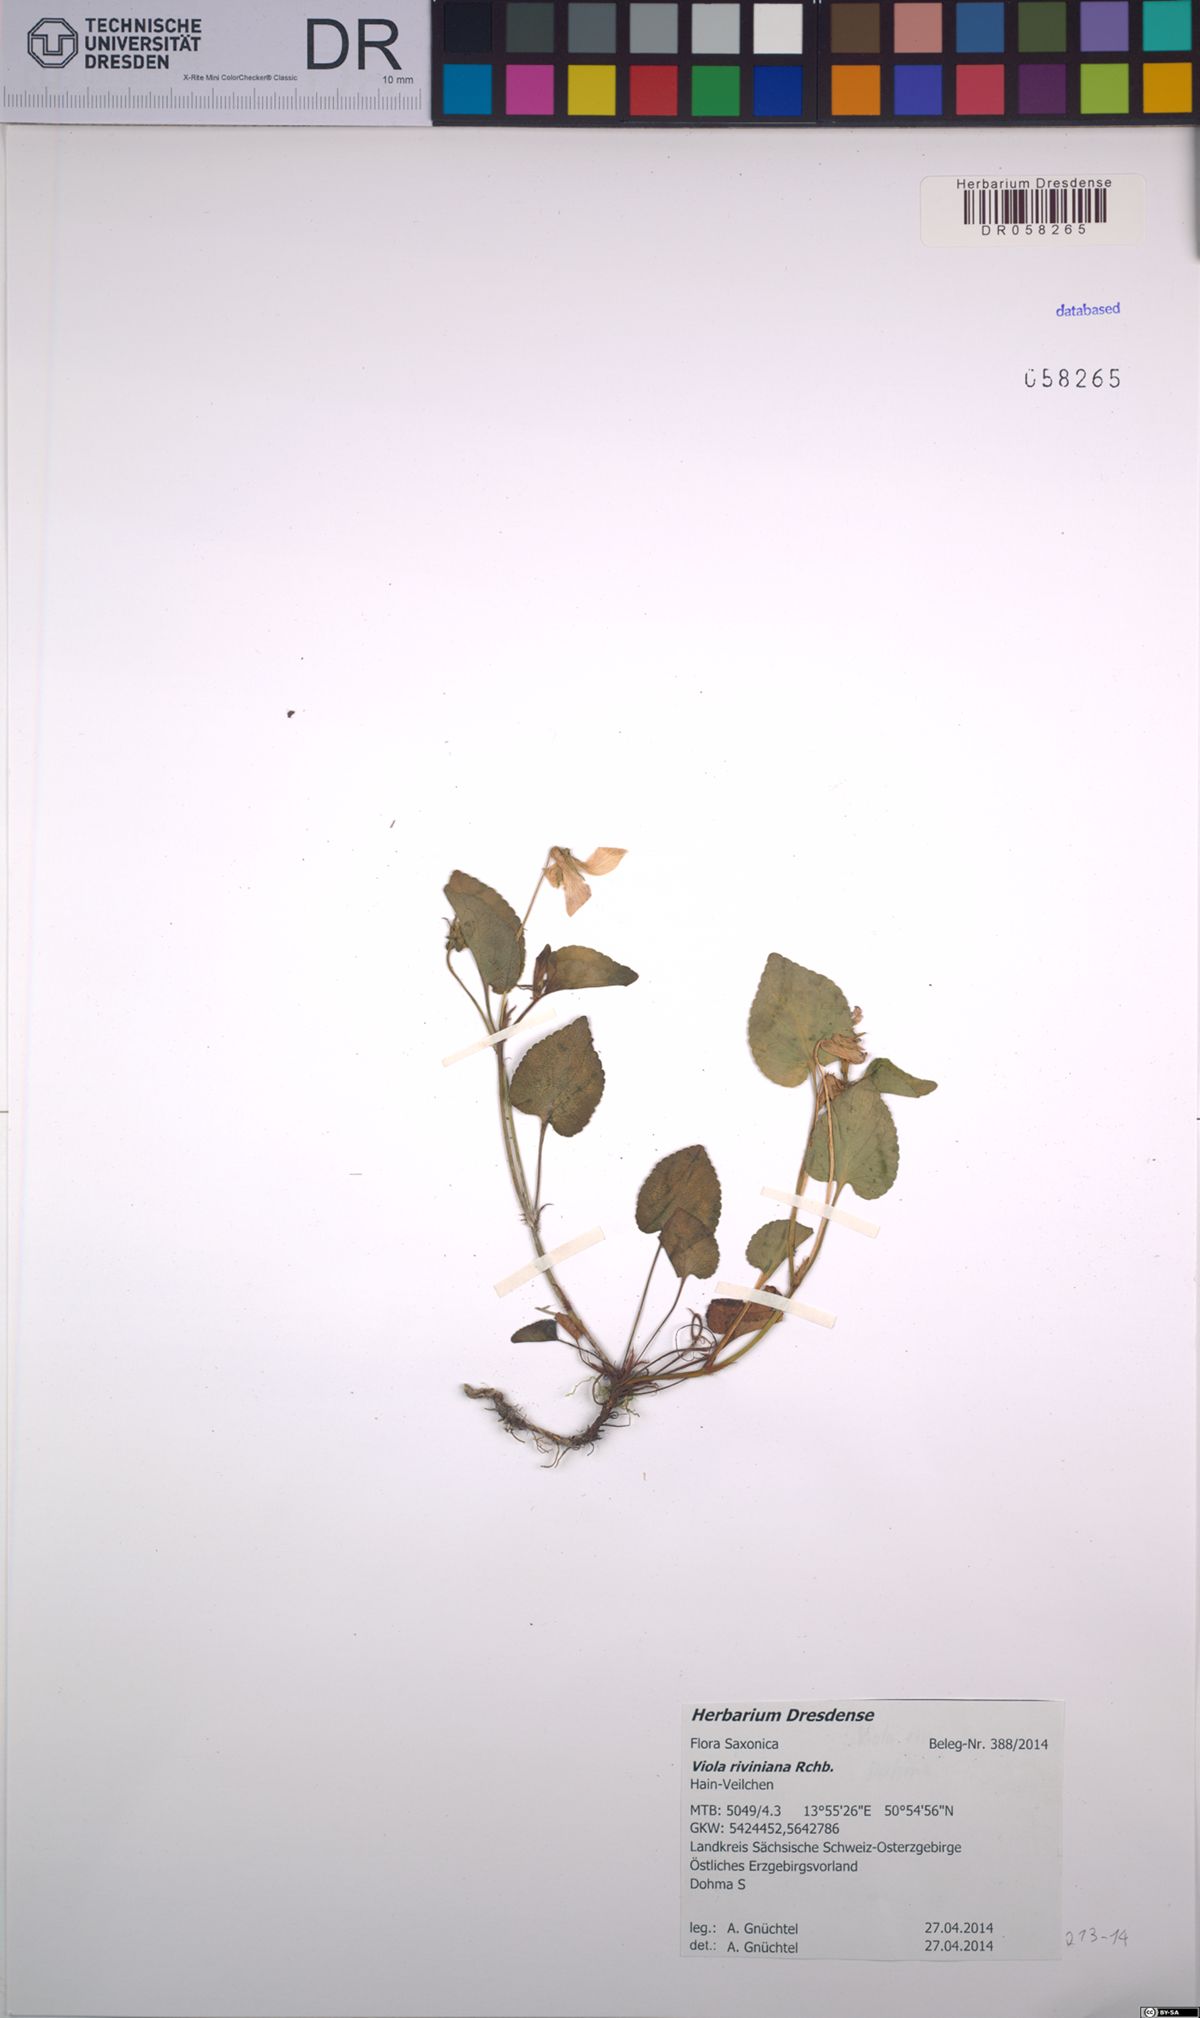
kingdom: Plantae
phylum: Tracheophyta
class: Magnoliopsida
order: Malpighiales
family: Violaceae
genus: Viola
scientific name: Viola riviniana
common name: Common dog-violet
